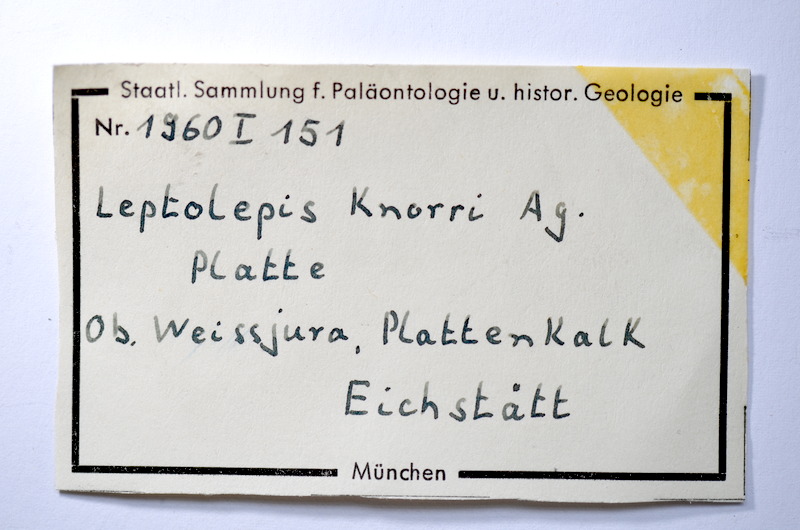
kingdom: Animalia
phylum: Chordata
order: Elopiformes
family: Anaethalionidae
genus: Anaethalion
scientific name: Anaethalion knorri
